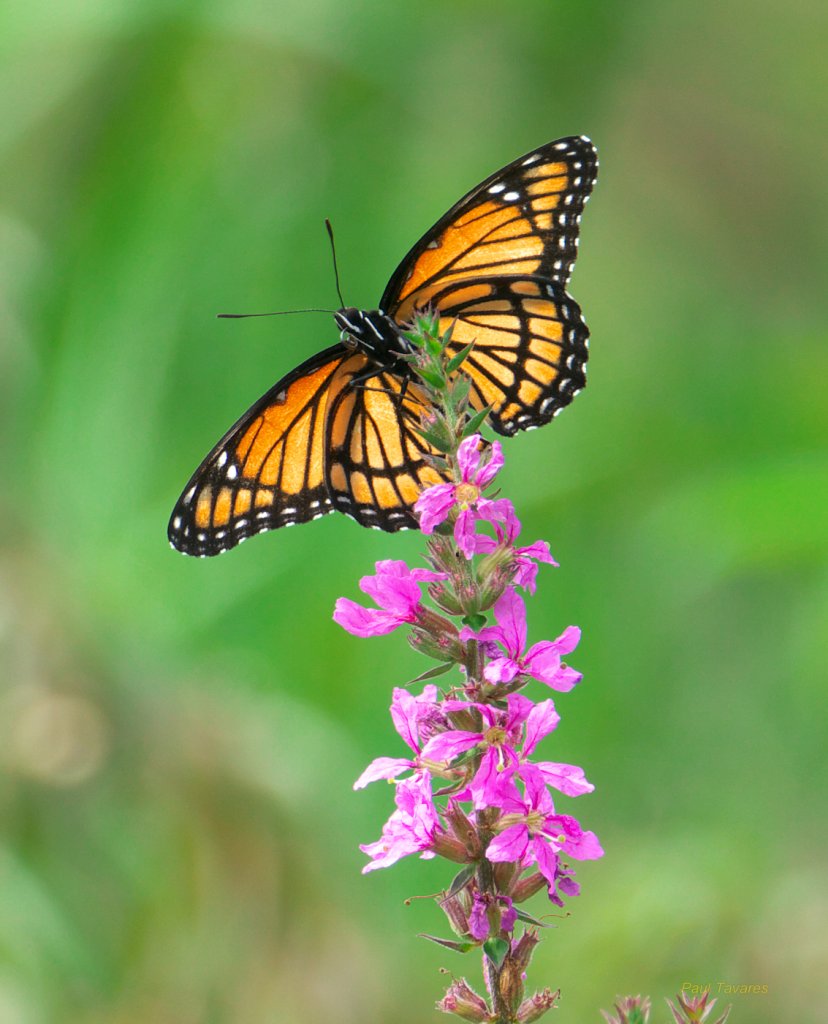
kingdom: Animalia
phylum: Arthropoda
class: Insecta
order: Lepidoptera
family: Nymphalidae
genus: Limenitis
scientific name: Limenitis archippus
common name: Viceroy
